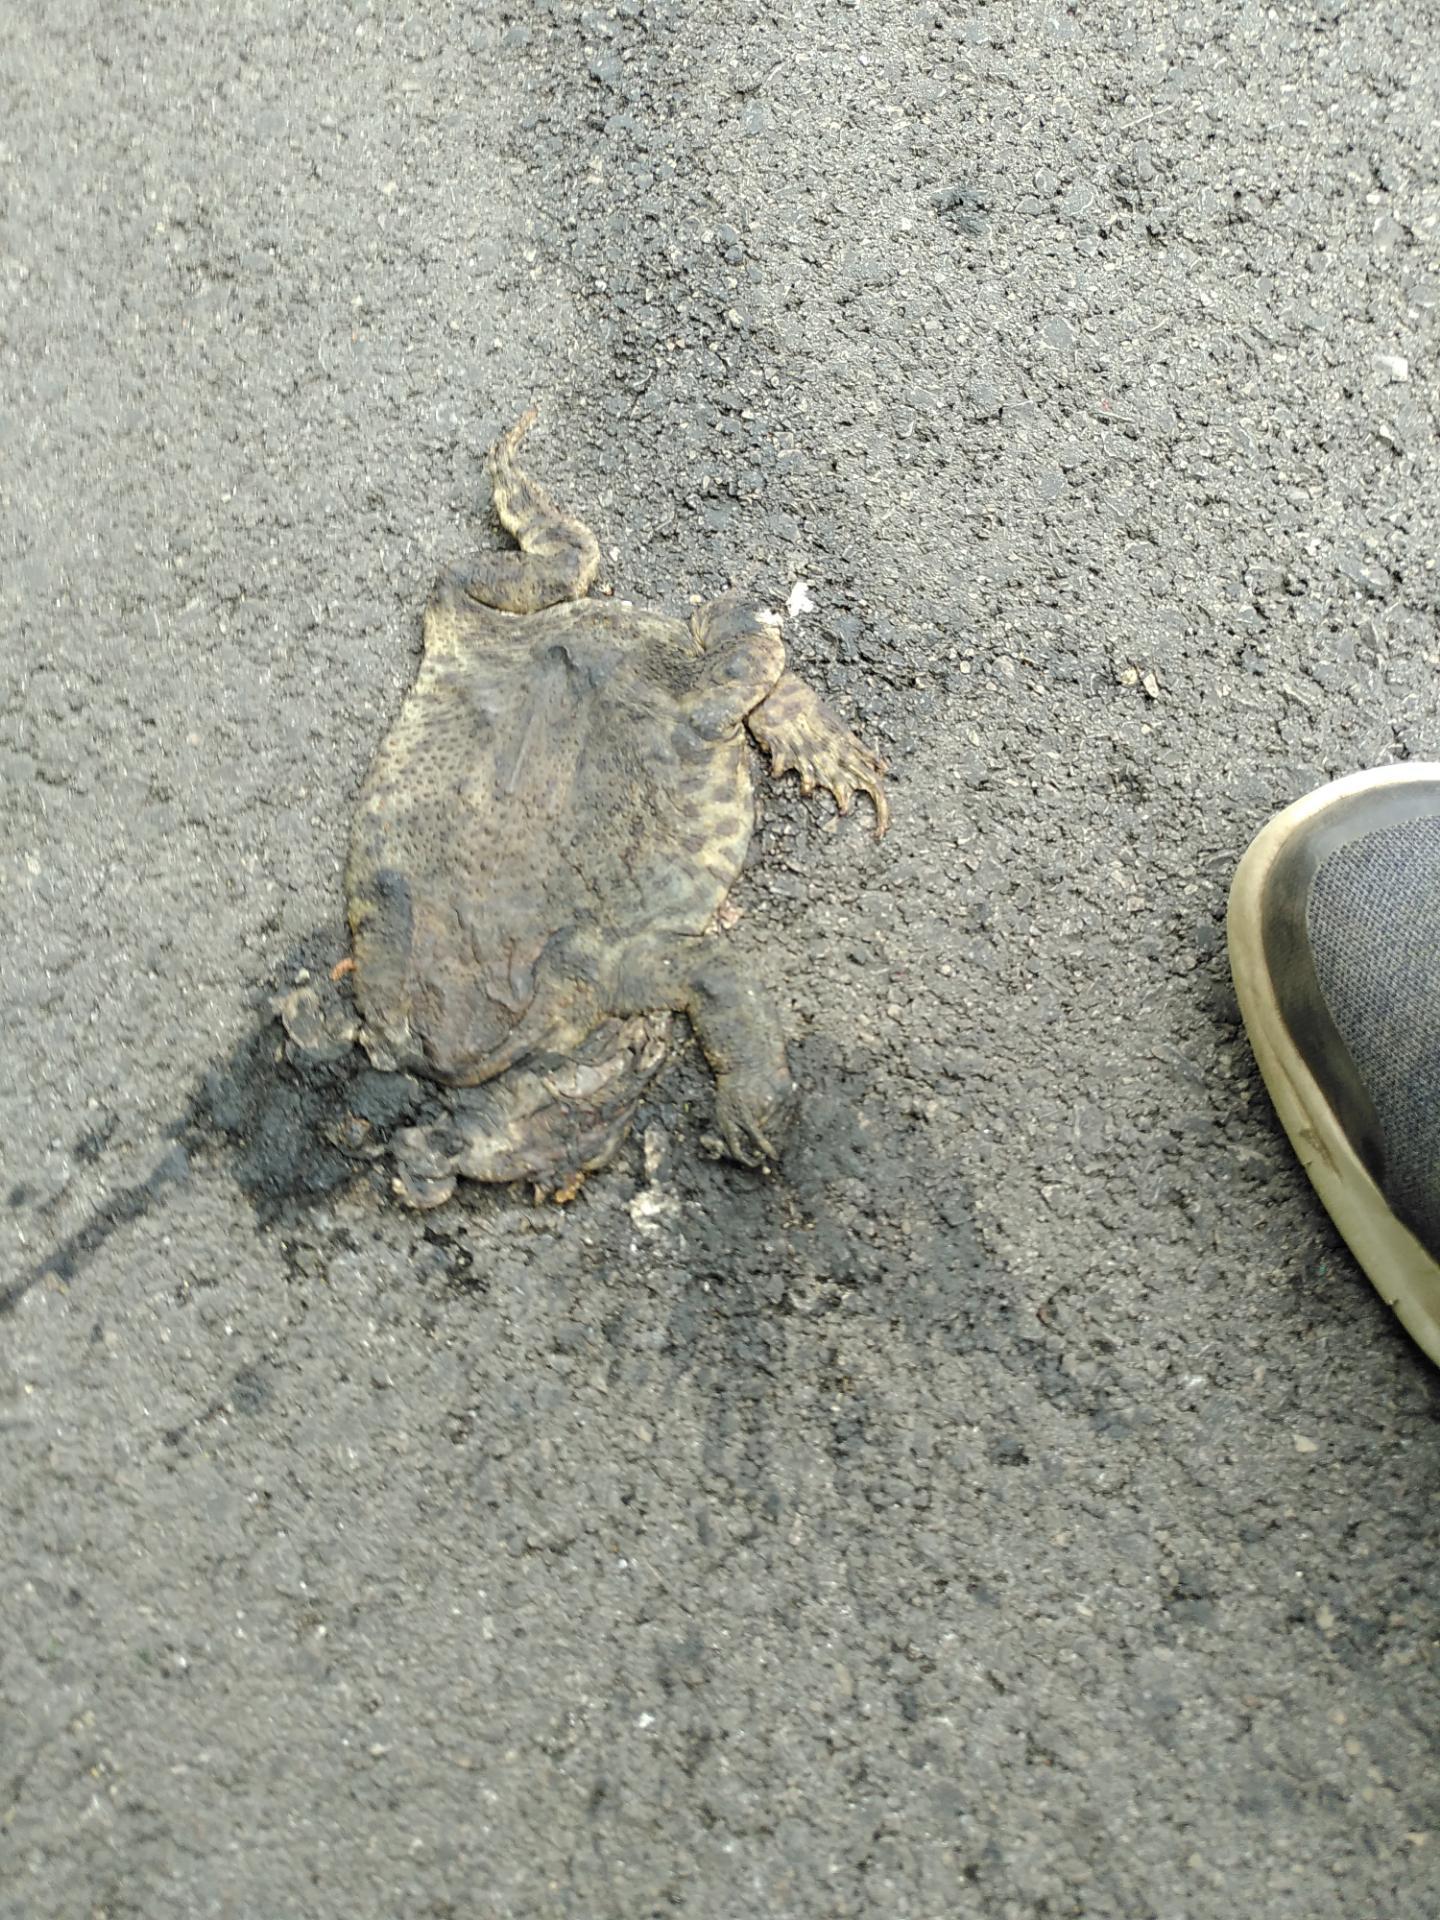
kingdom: Animalia
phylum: Chordata
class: Amphibia
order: Anura
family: Bufonidae
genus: Bufo
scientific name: Bufo bufo
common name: Common toad
